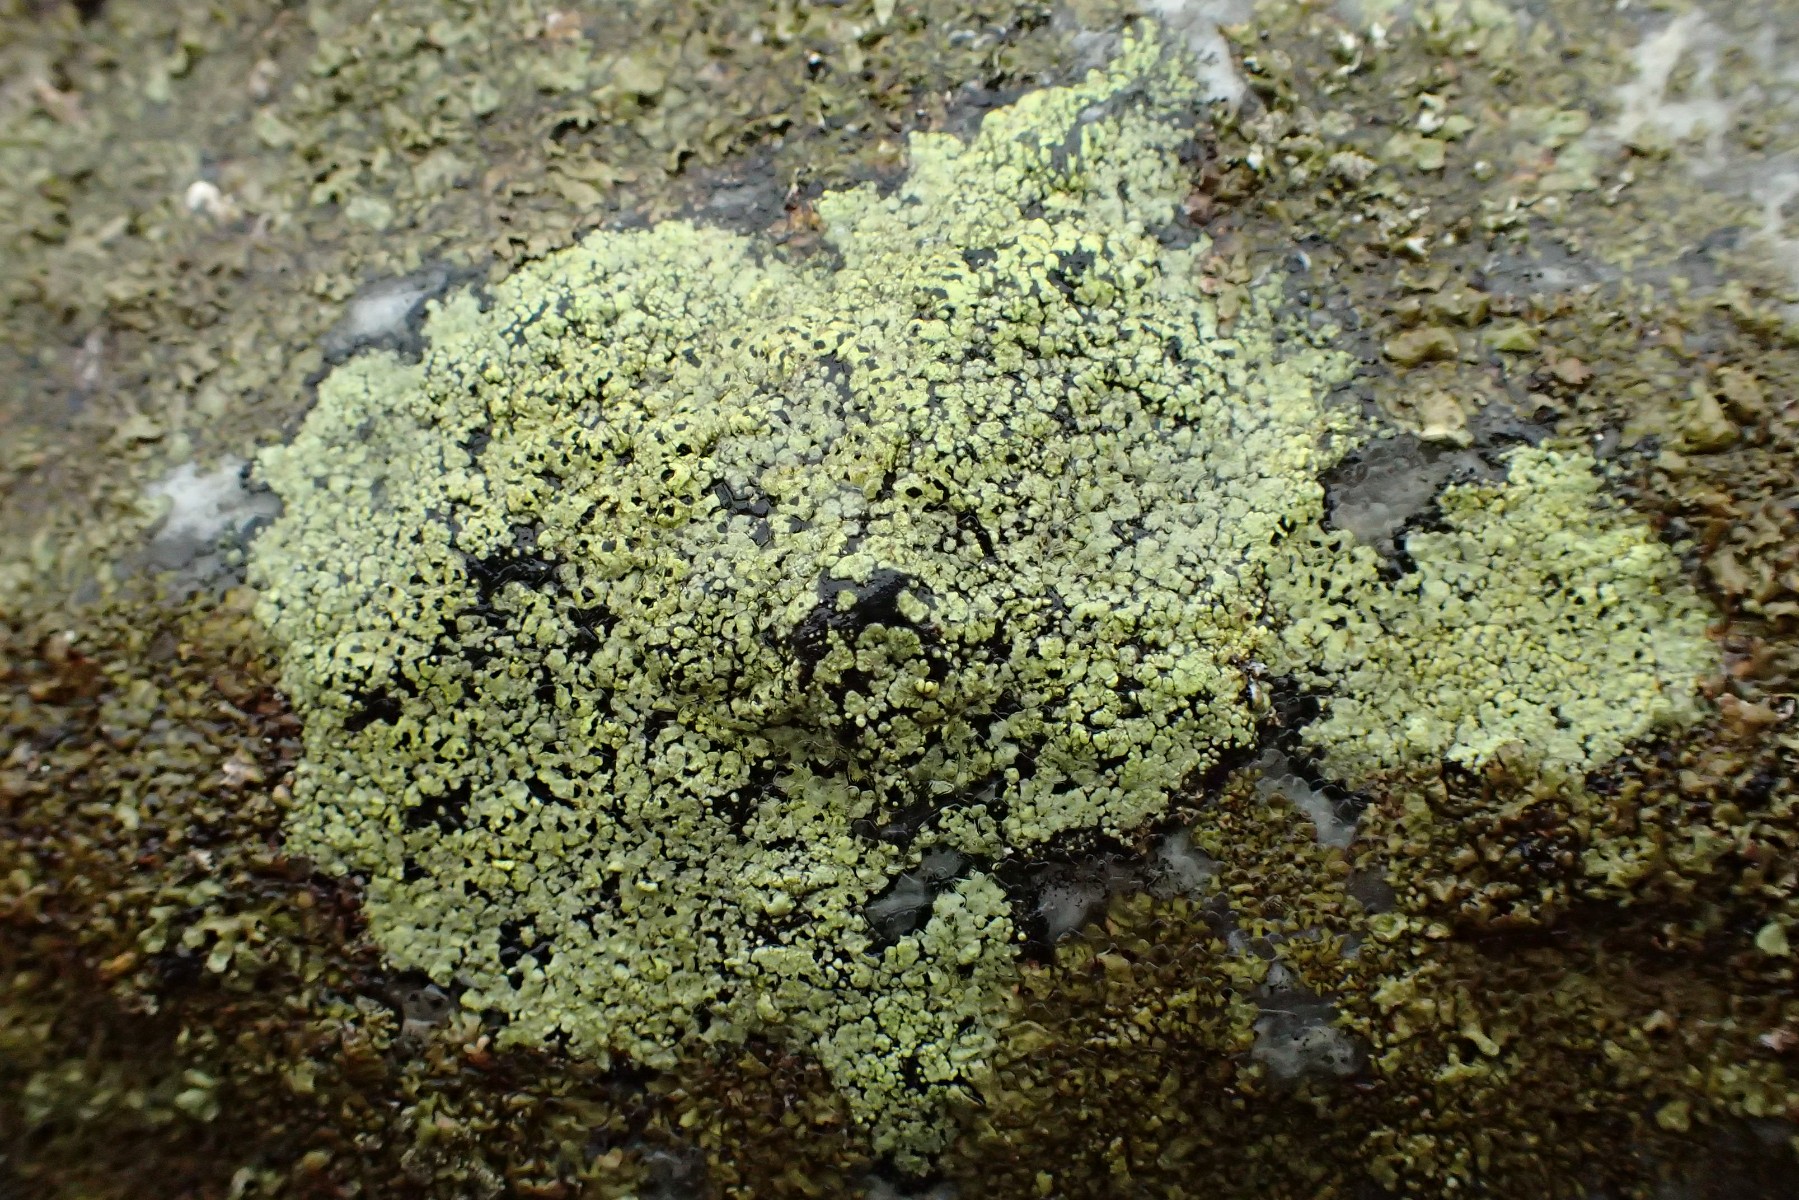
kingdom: Fungi
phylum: Ascomycota
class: Lecanoromycetes
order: Rhizocarpales
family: Rhizocarpaceae
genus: Rhizocarpon
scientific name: Rhizocarpon lecanorinum
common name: krave-landkortlav
